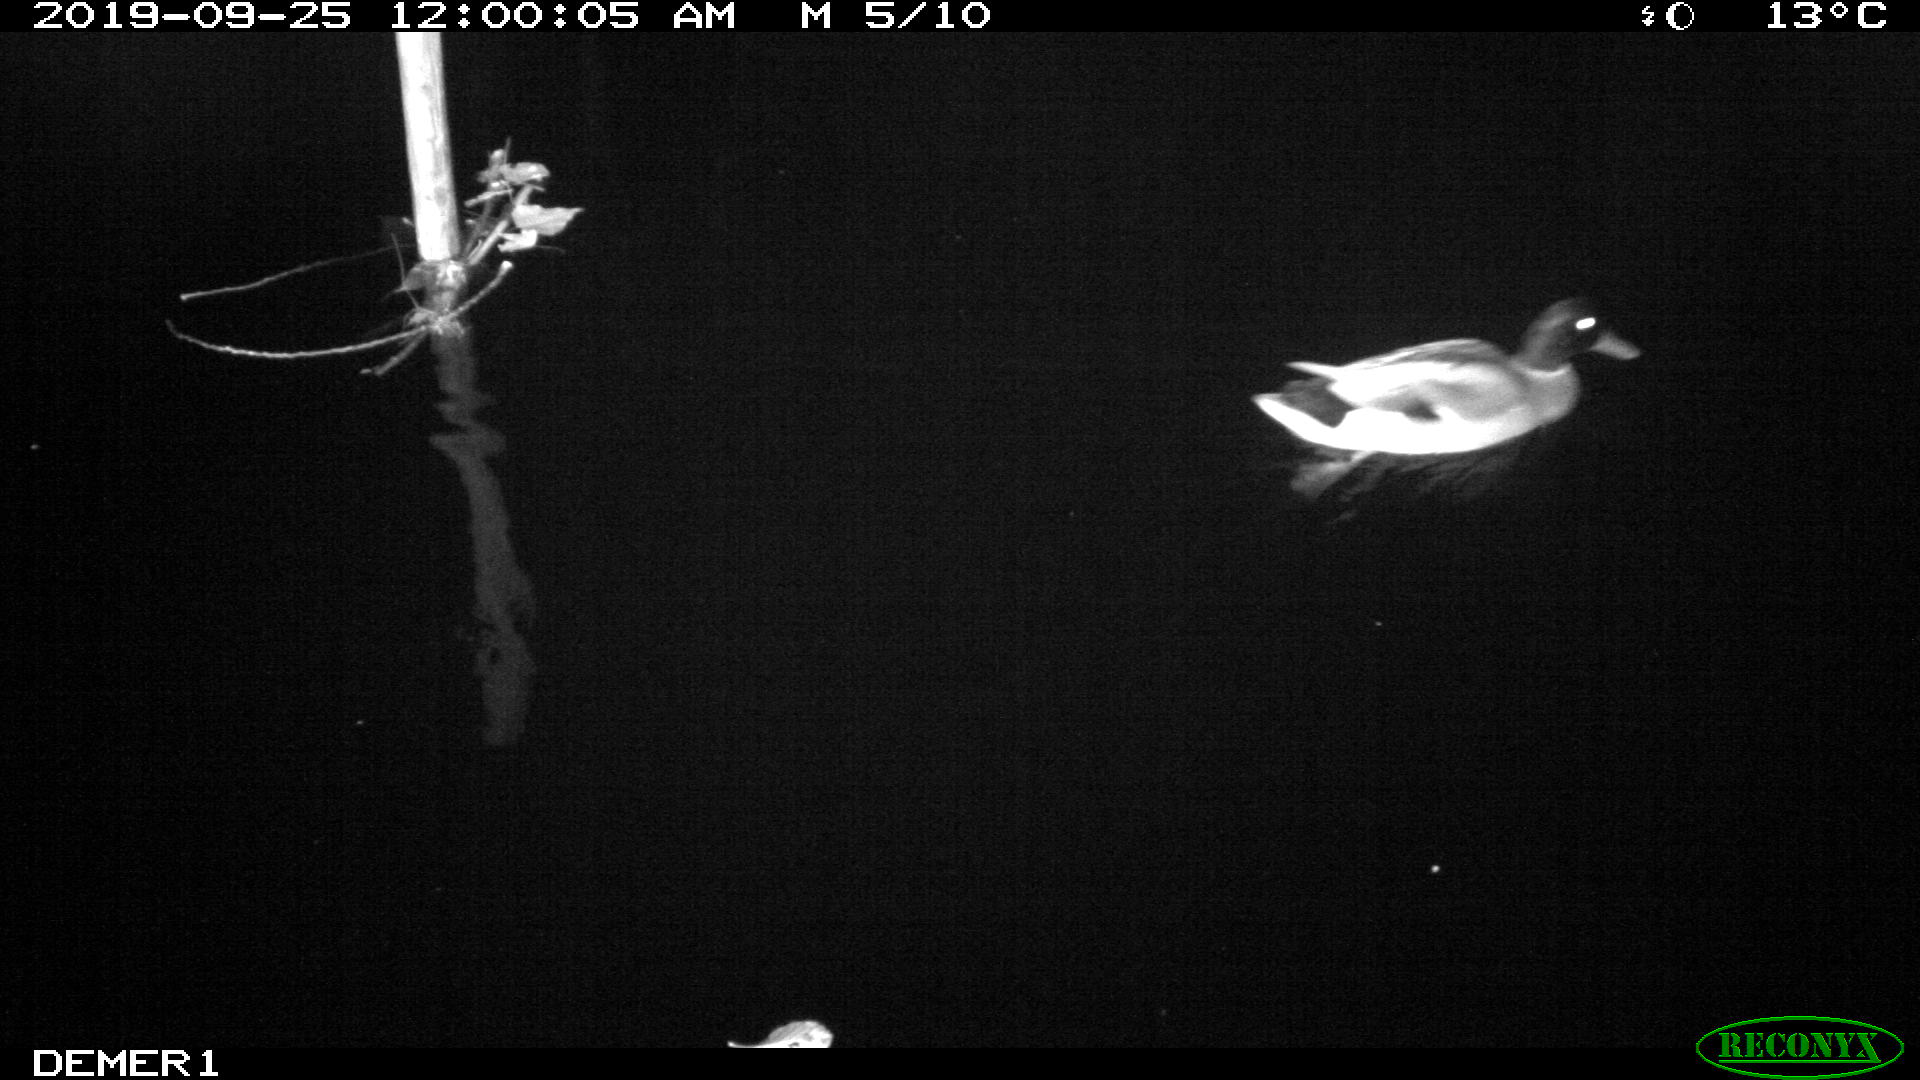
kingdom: Animalia
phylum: Chordata
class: Aves
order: Anseriformes
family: Anatidae
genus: Anas
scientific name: Anas platyrhynchos
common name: Mallard
